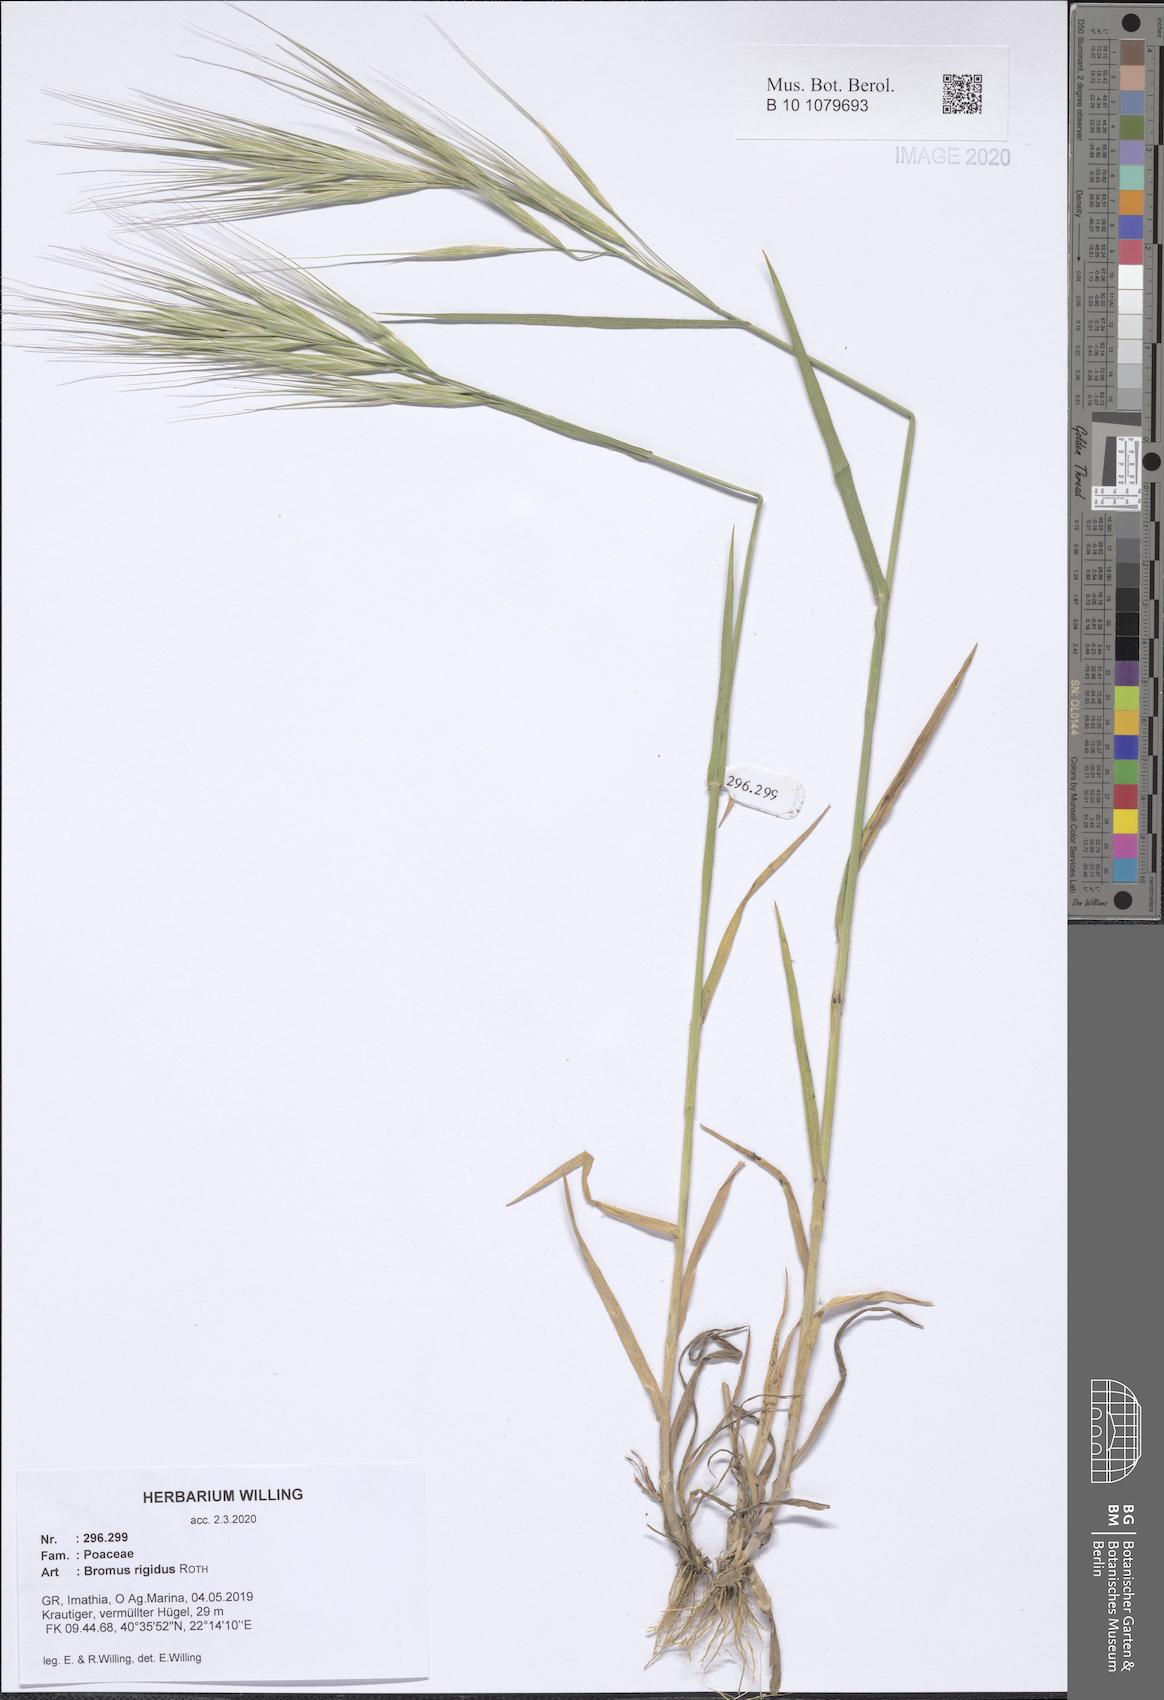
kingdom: Plantae
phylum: Tracheophyta
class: Liliopsida
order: Poales
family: Poaceae
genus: Bromus
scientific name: Bromus rigidus
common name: Ripgut brome
